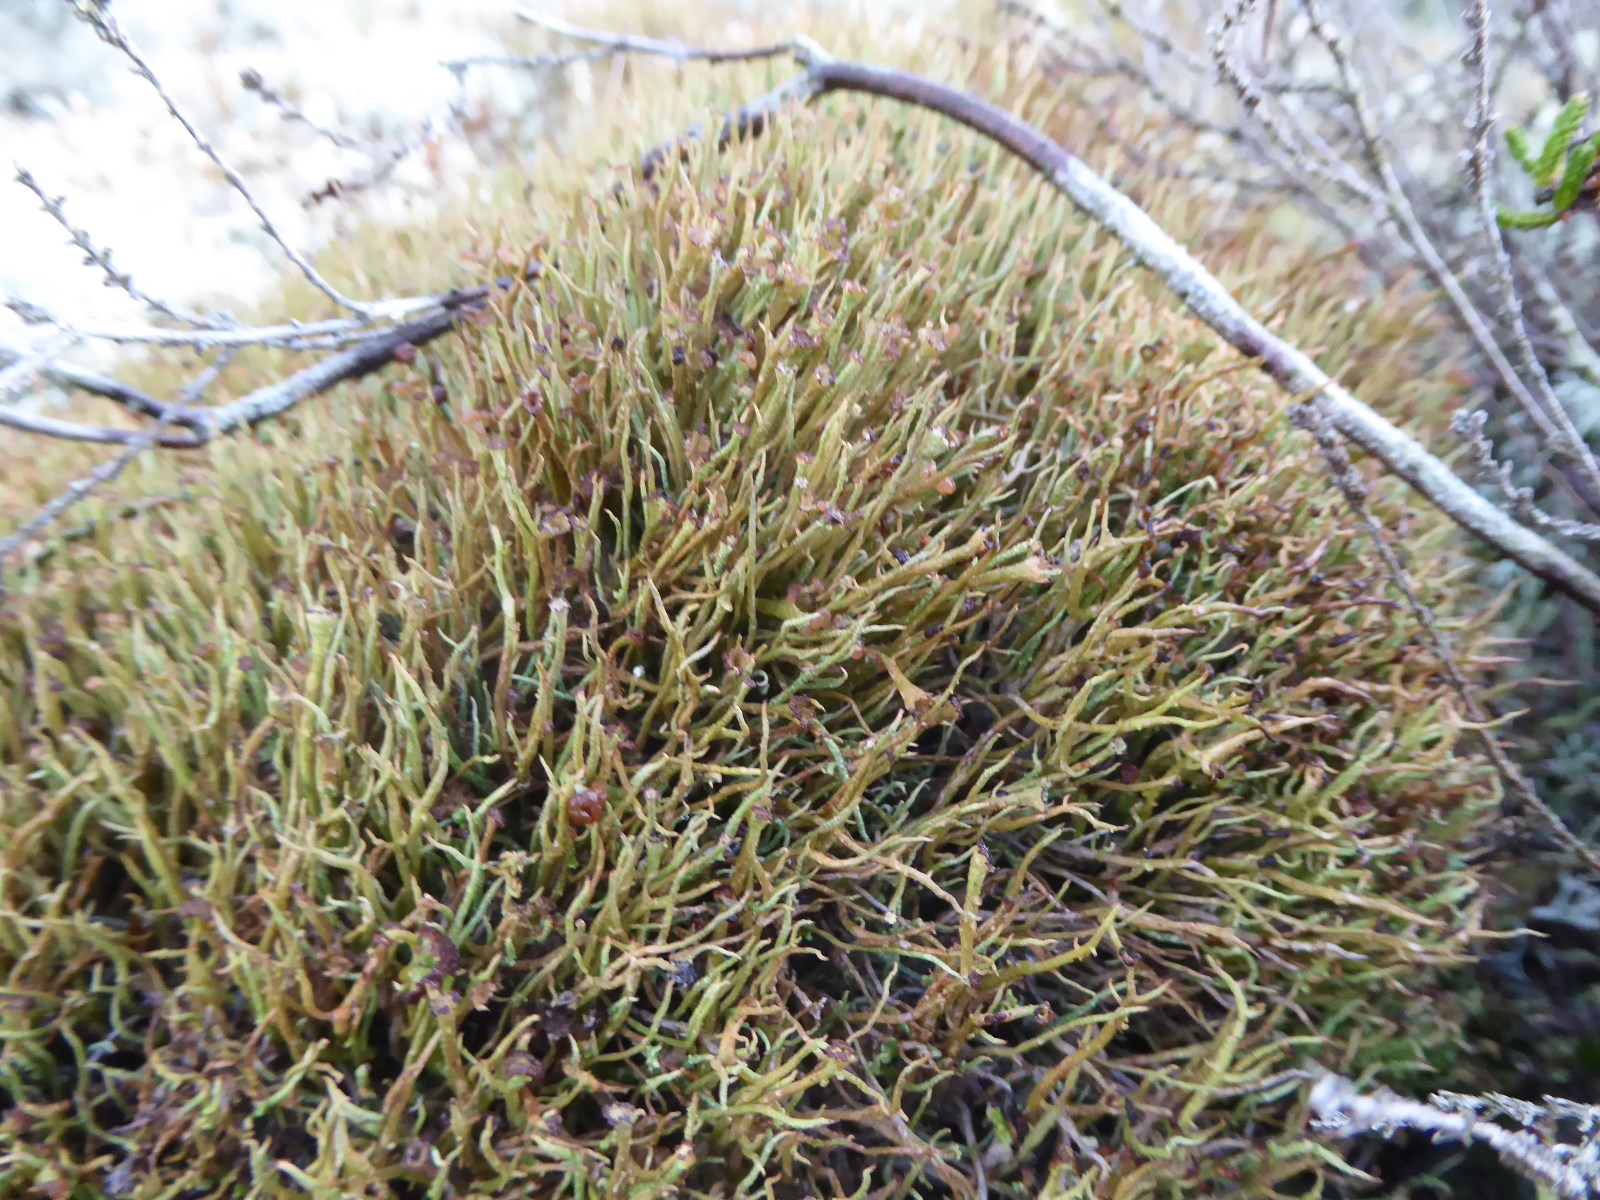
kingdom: Fungi
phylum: Ascomycota
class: Lecanoromycetes
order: Lecanorales
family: Cladoniaceae
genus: Cladonia
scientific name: Cladonia gracilis
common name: slank bægerlav
